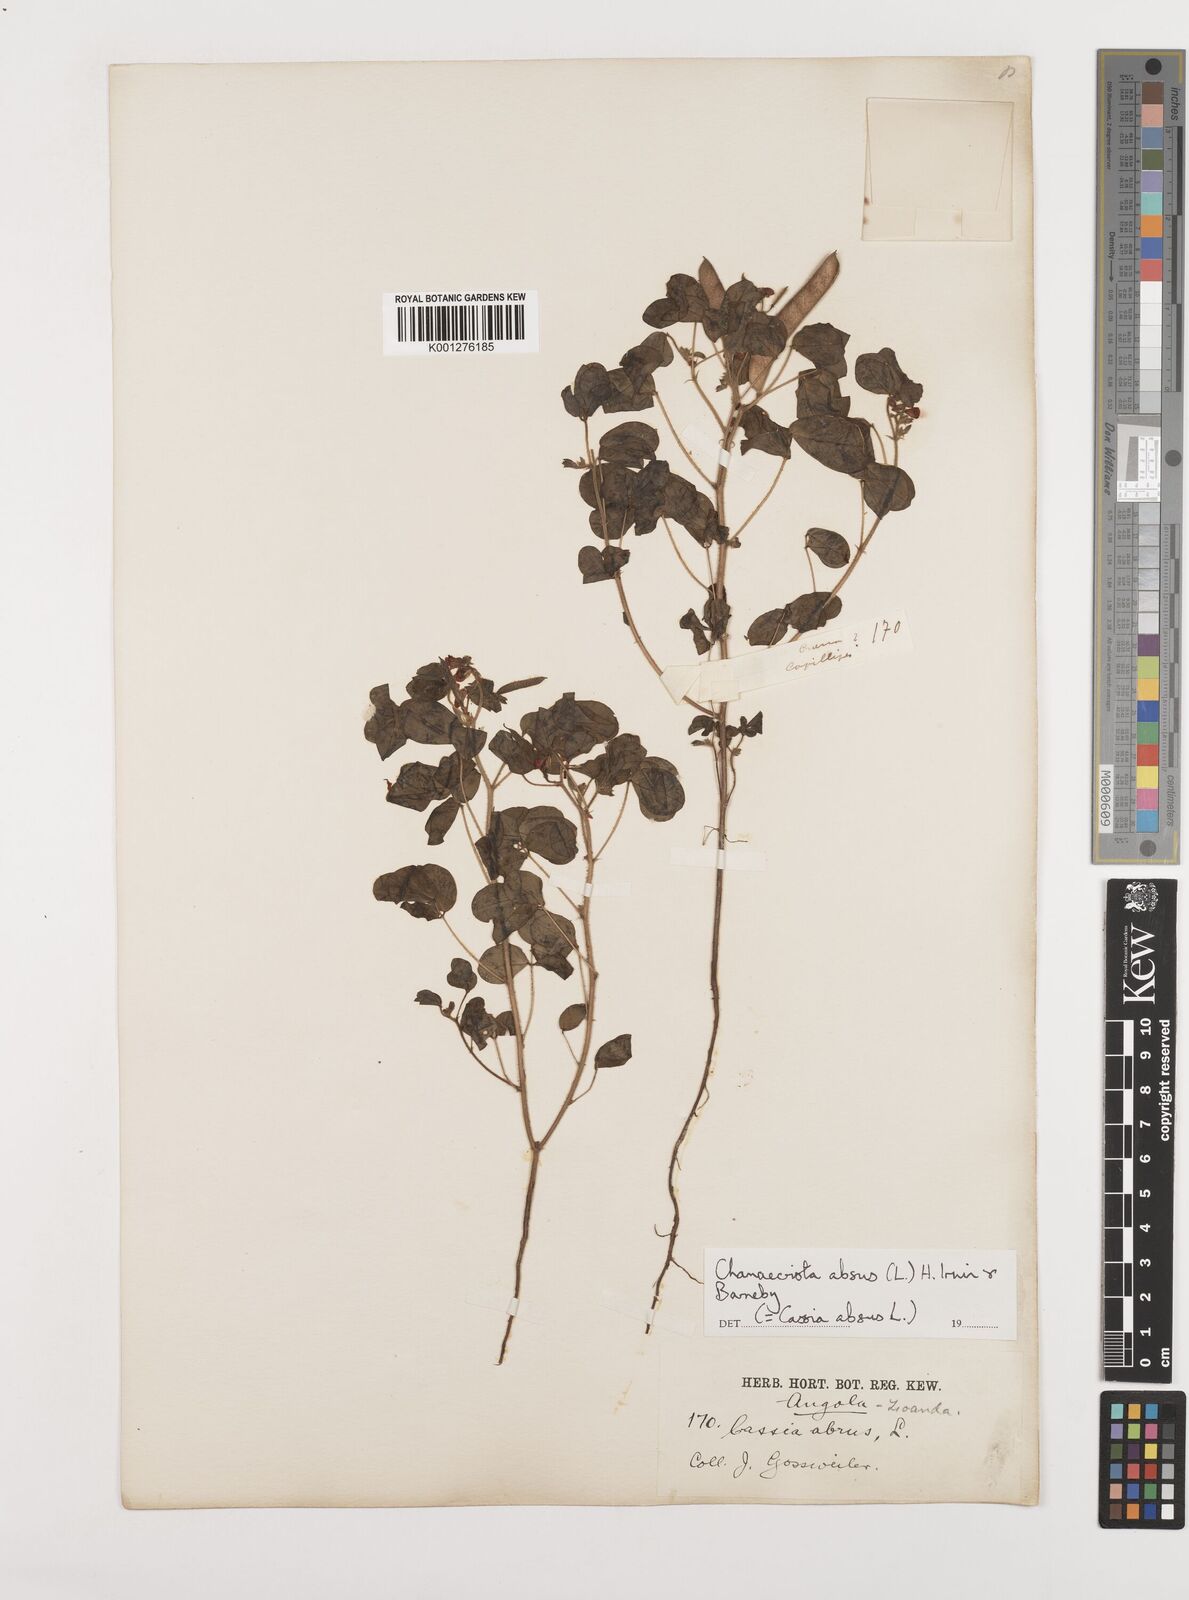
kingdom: Plantae
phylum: Tracheophyta
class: Magnoliopsida
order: Fabales
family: Fabaceae
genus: Chamaecrista
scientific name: Chamaecrista absus
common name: Tropical sensitive pea
